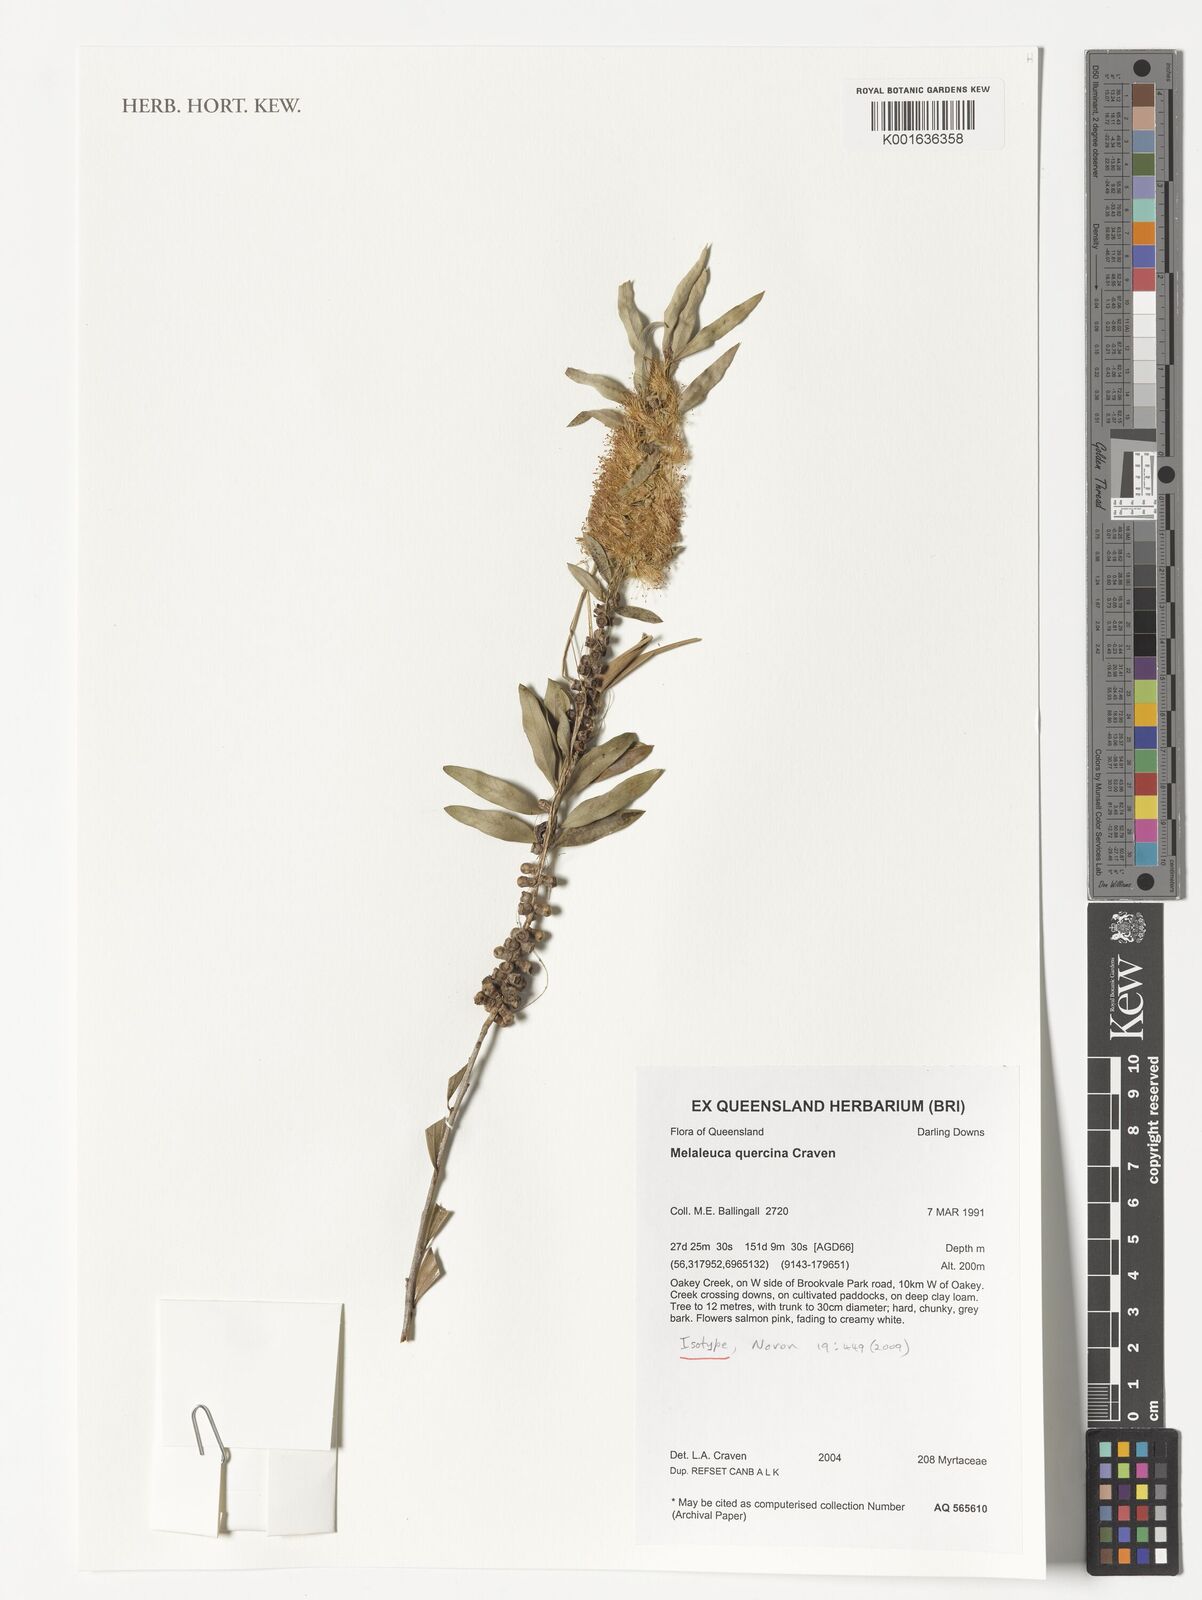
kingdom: Plantae
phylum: Tracheophyta
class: Magnoliopsida
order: Myrtales
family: Myrtaceae
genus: Callistemon
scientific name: Callistemon quercinus
